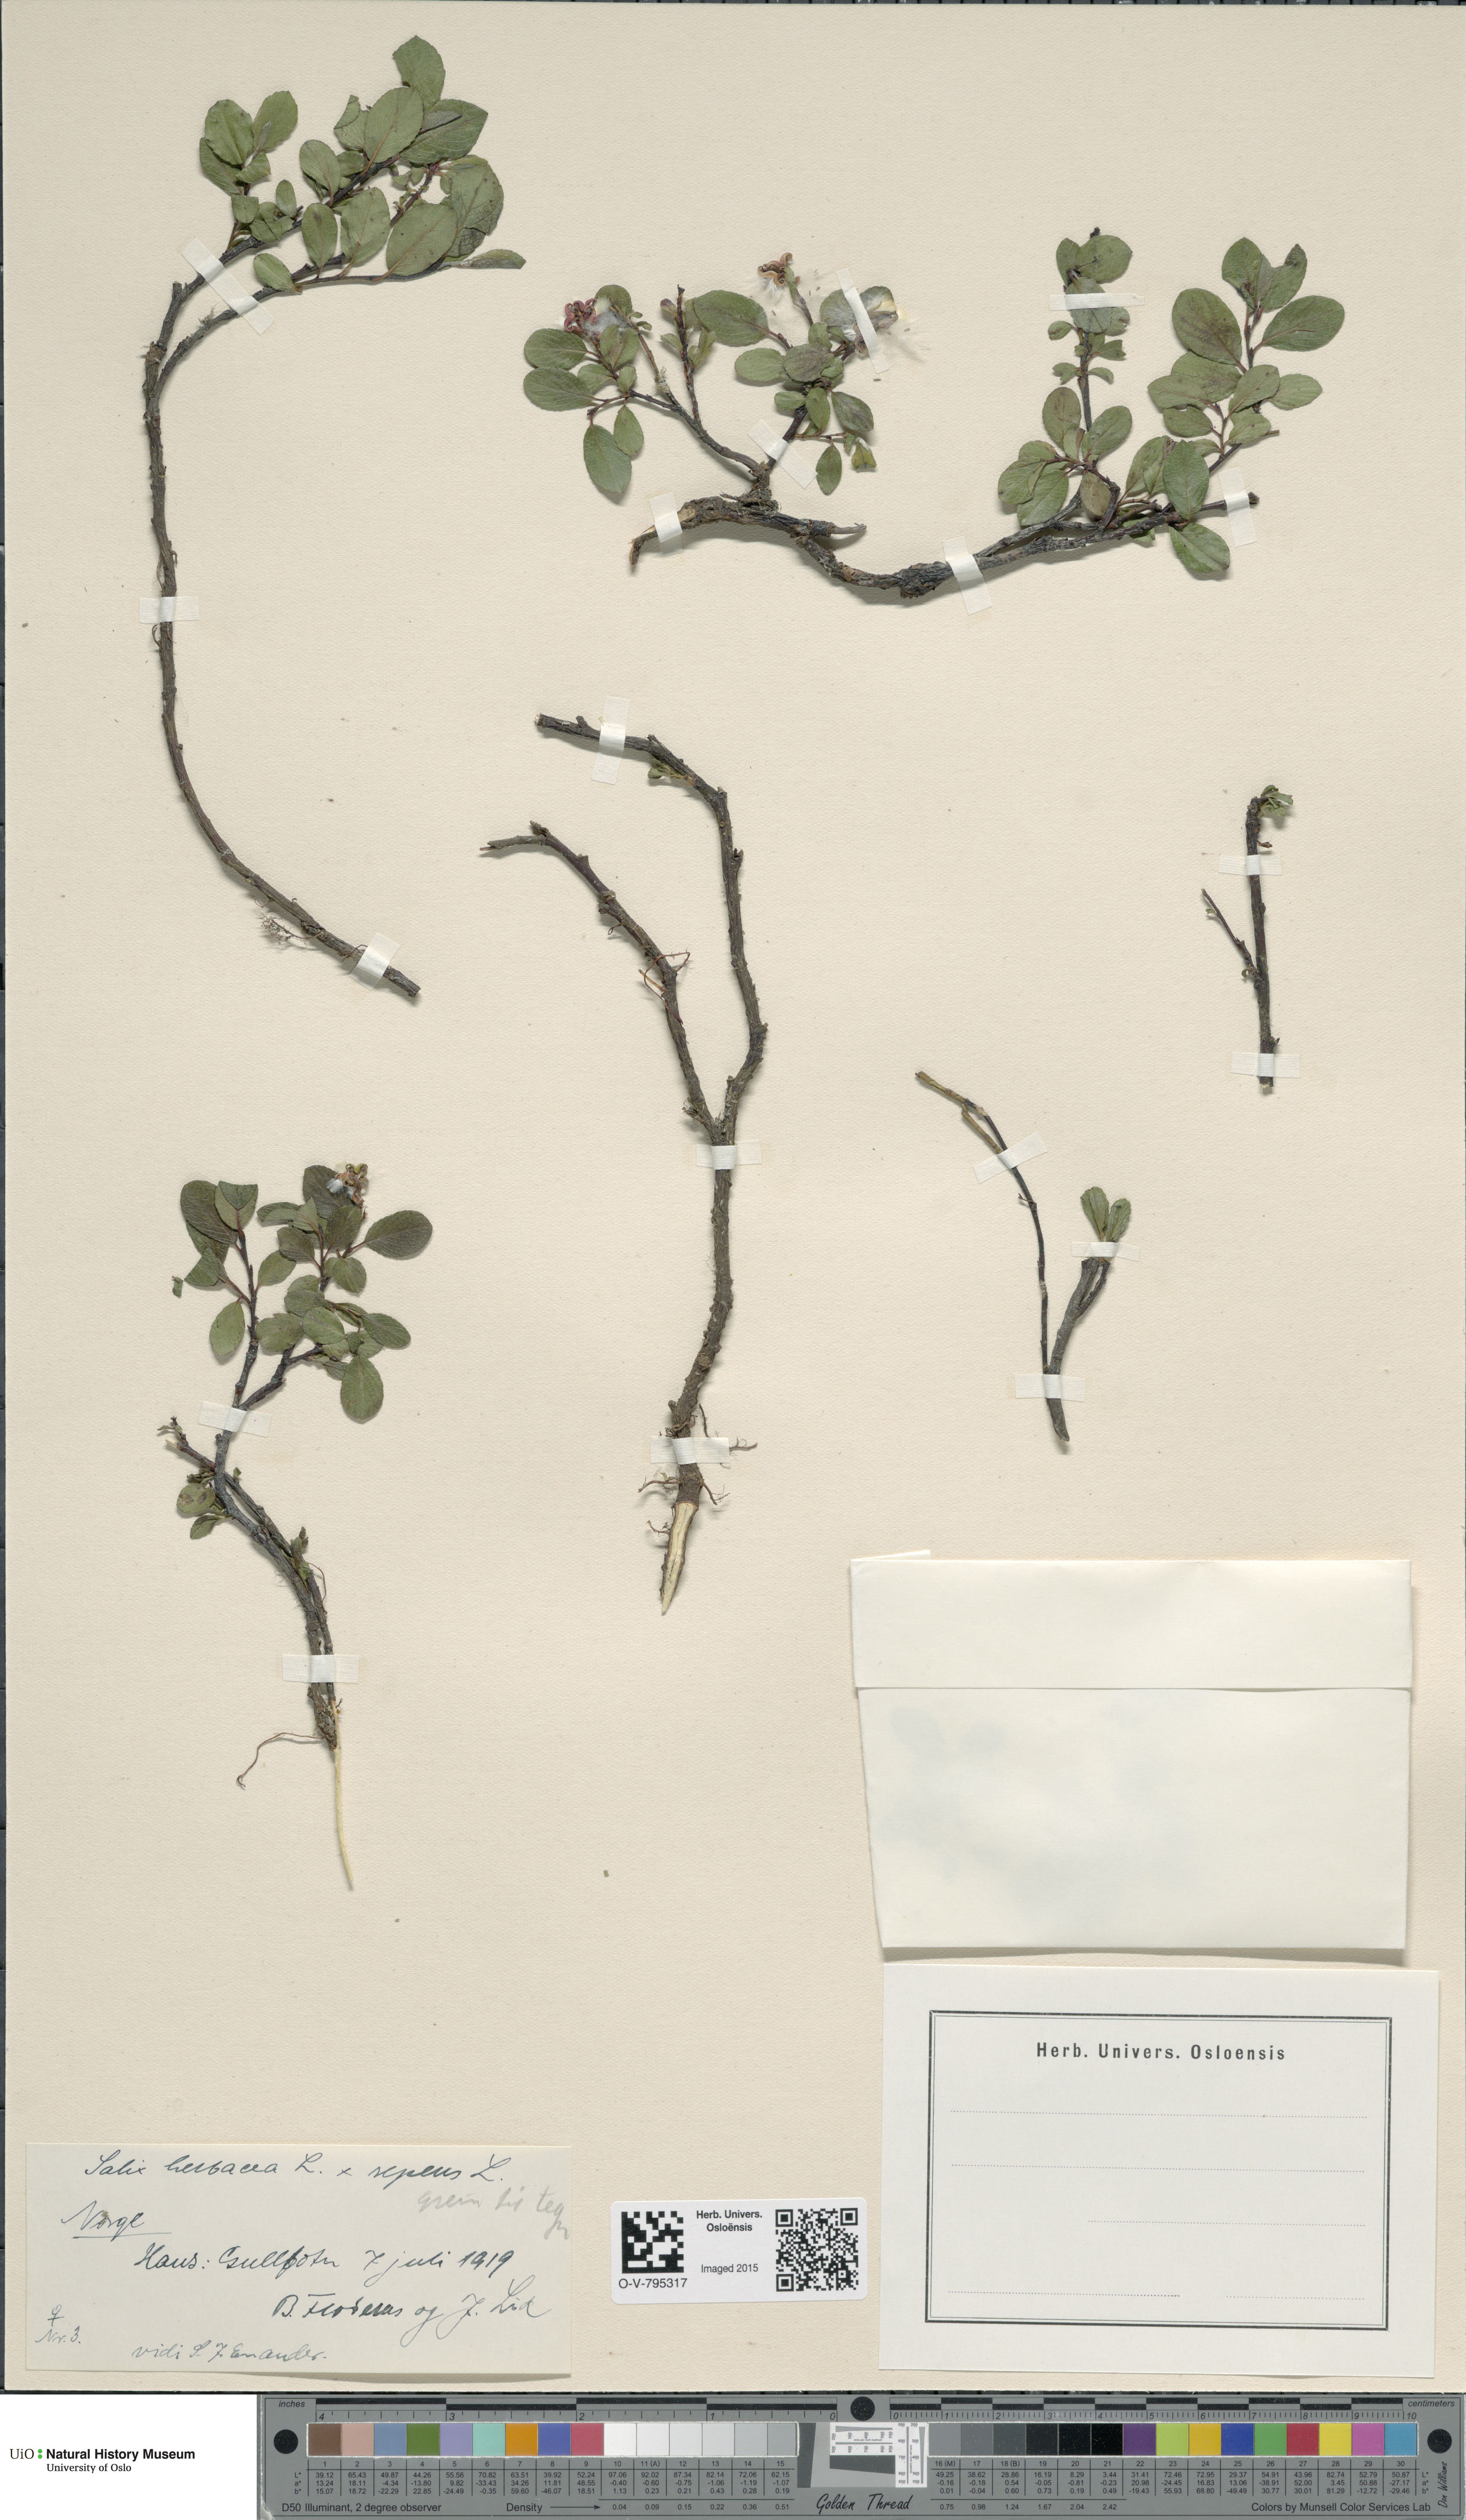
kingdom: Plantae
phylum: Tracheophyta
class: Magnoliopsida
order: Malpighiales
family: Salicaceae
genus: Salix
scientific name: Salix
